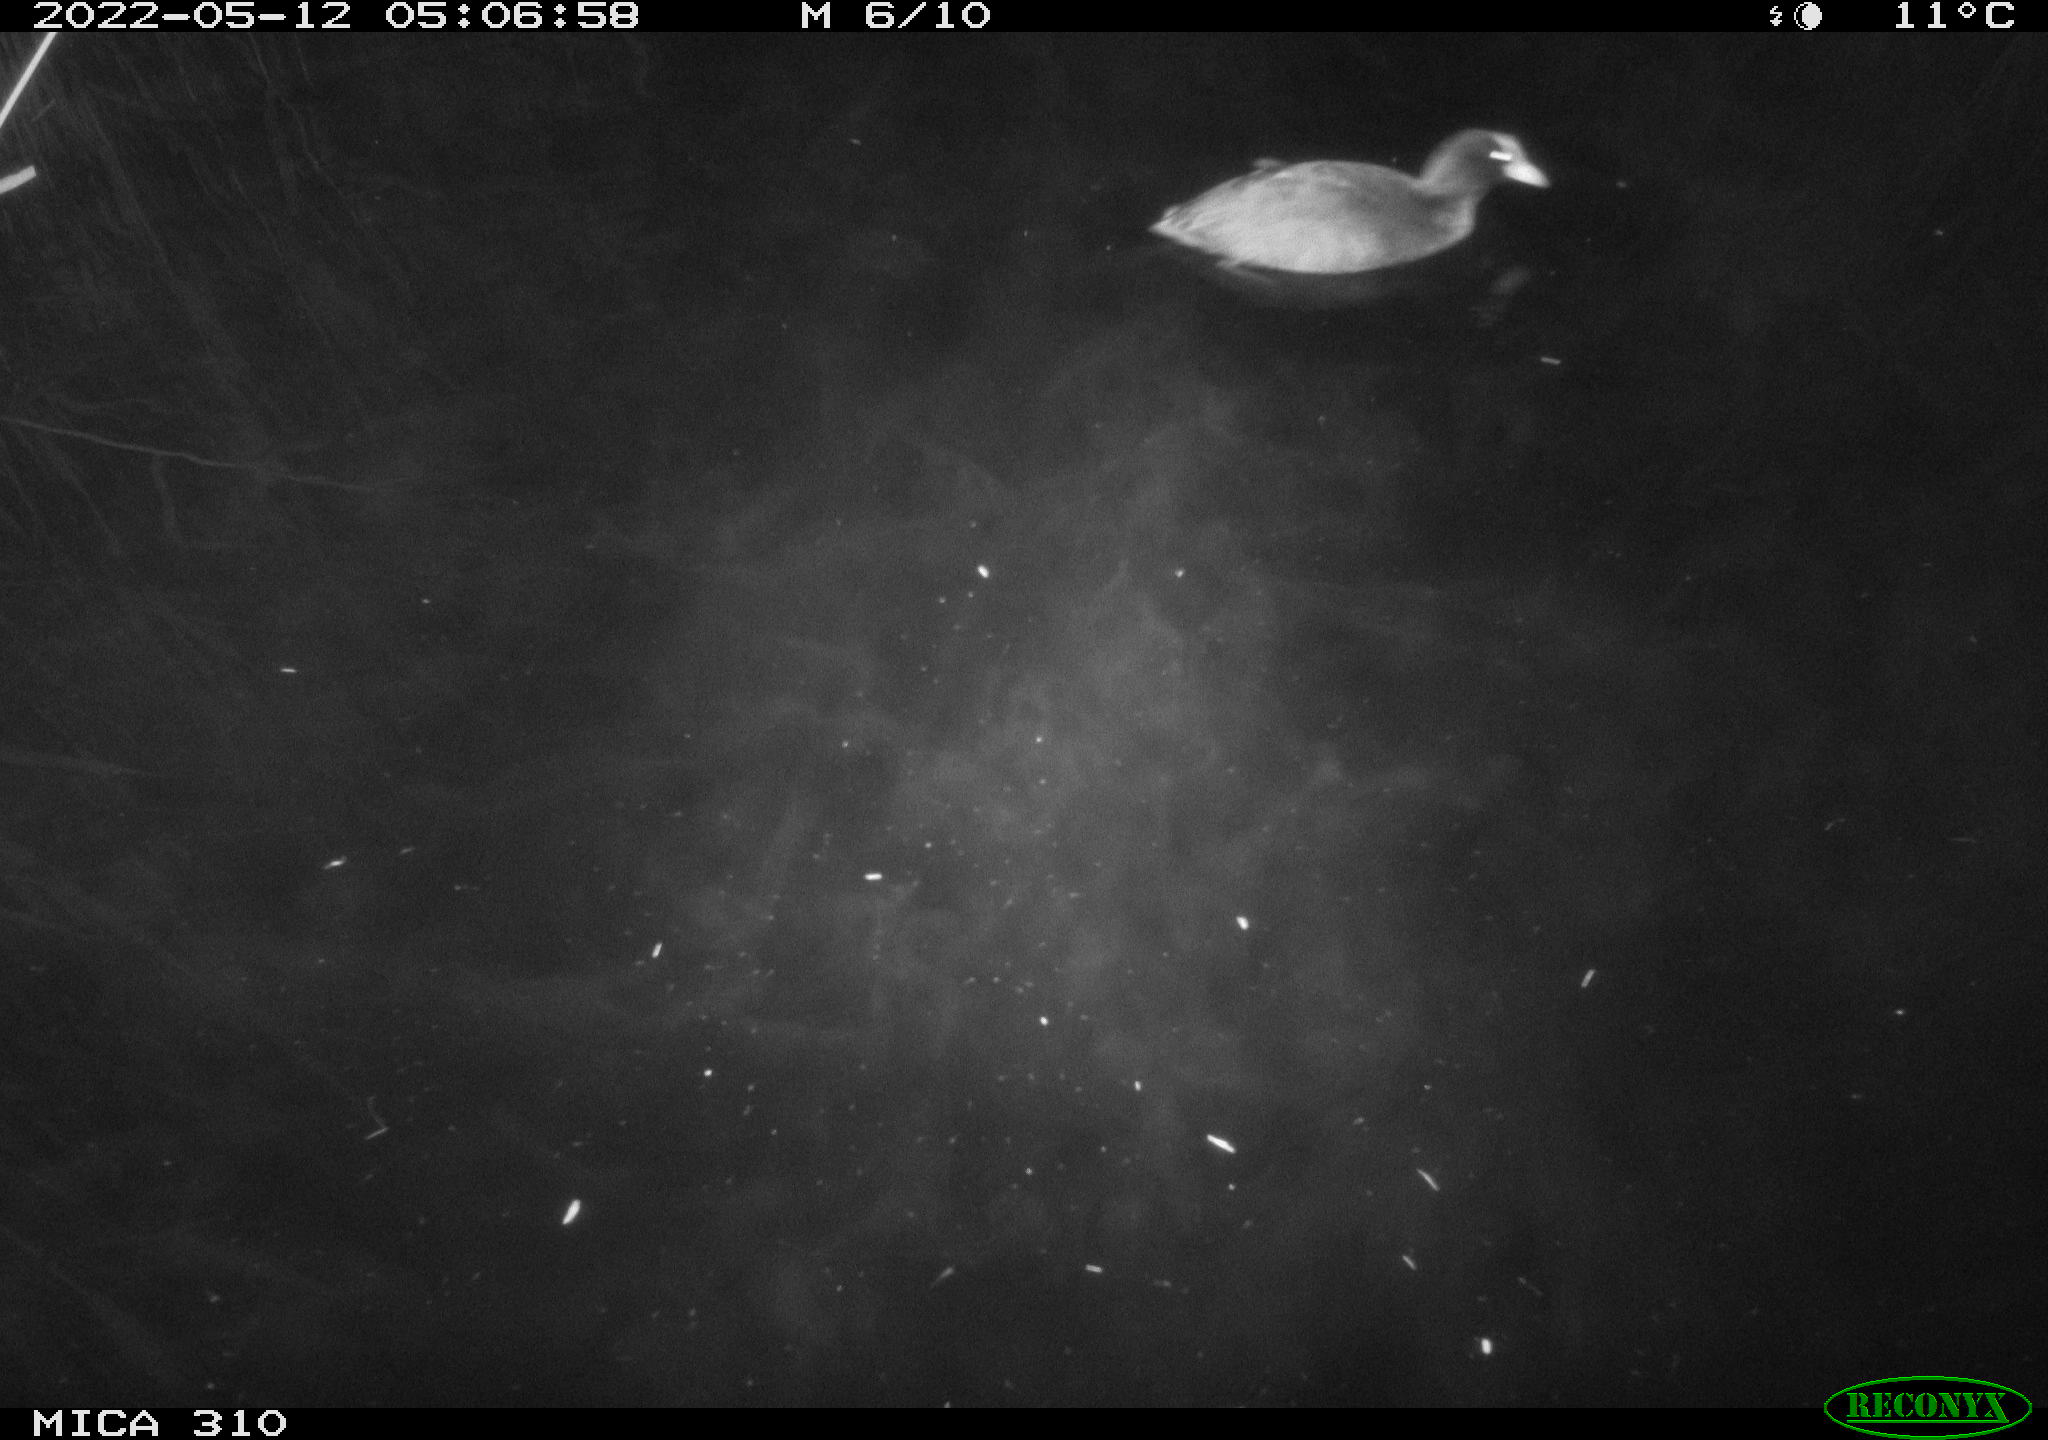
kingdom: Animalia
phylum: Chordata
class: Aves
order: Gruiformes
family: Rallidae
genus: Fulica
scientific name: Fulica atra
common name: Eurasian coot
